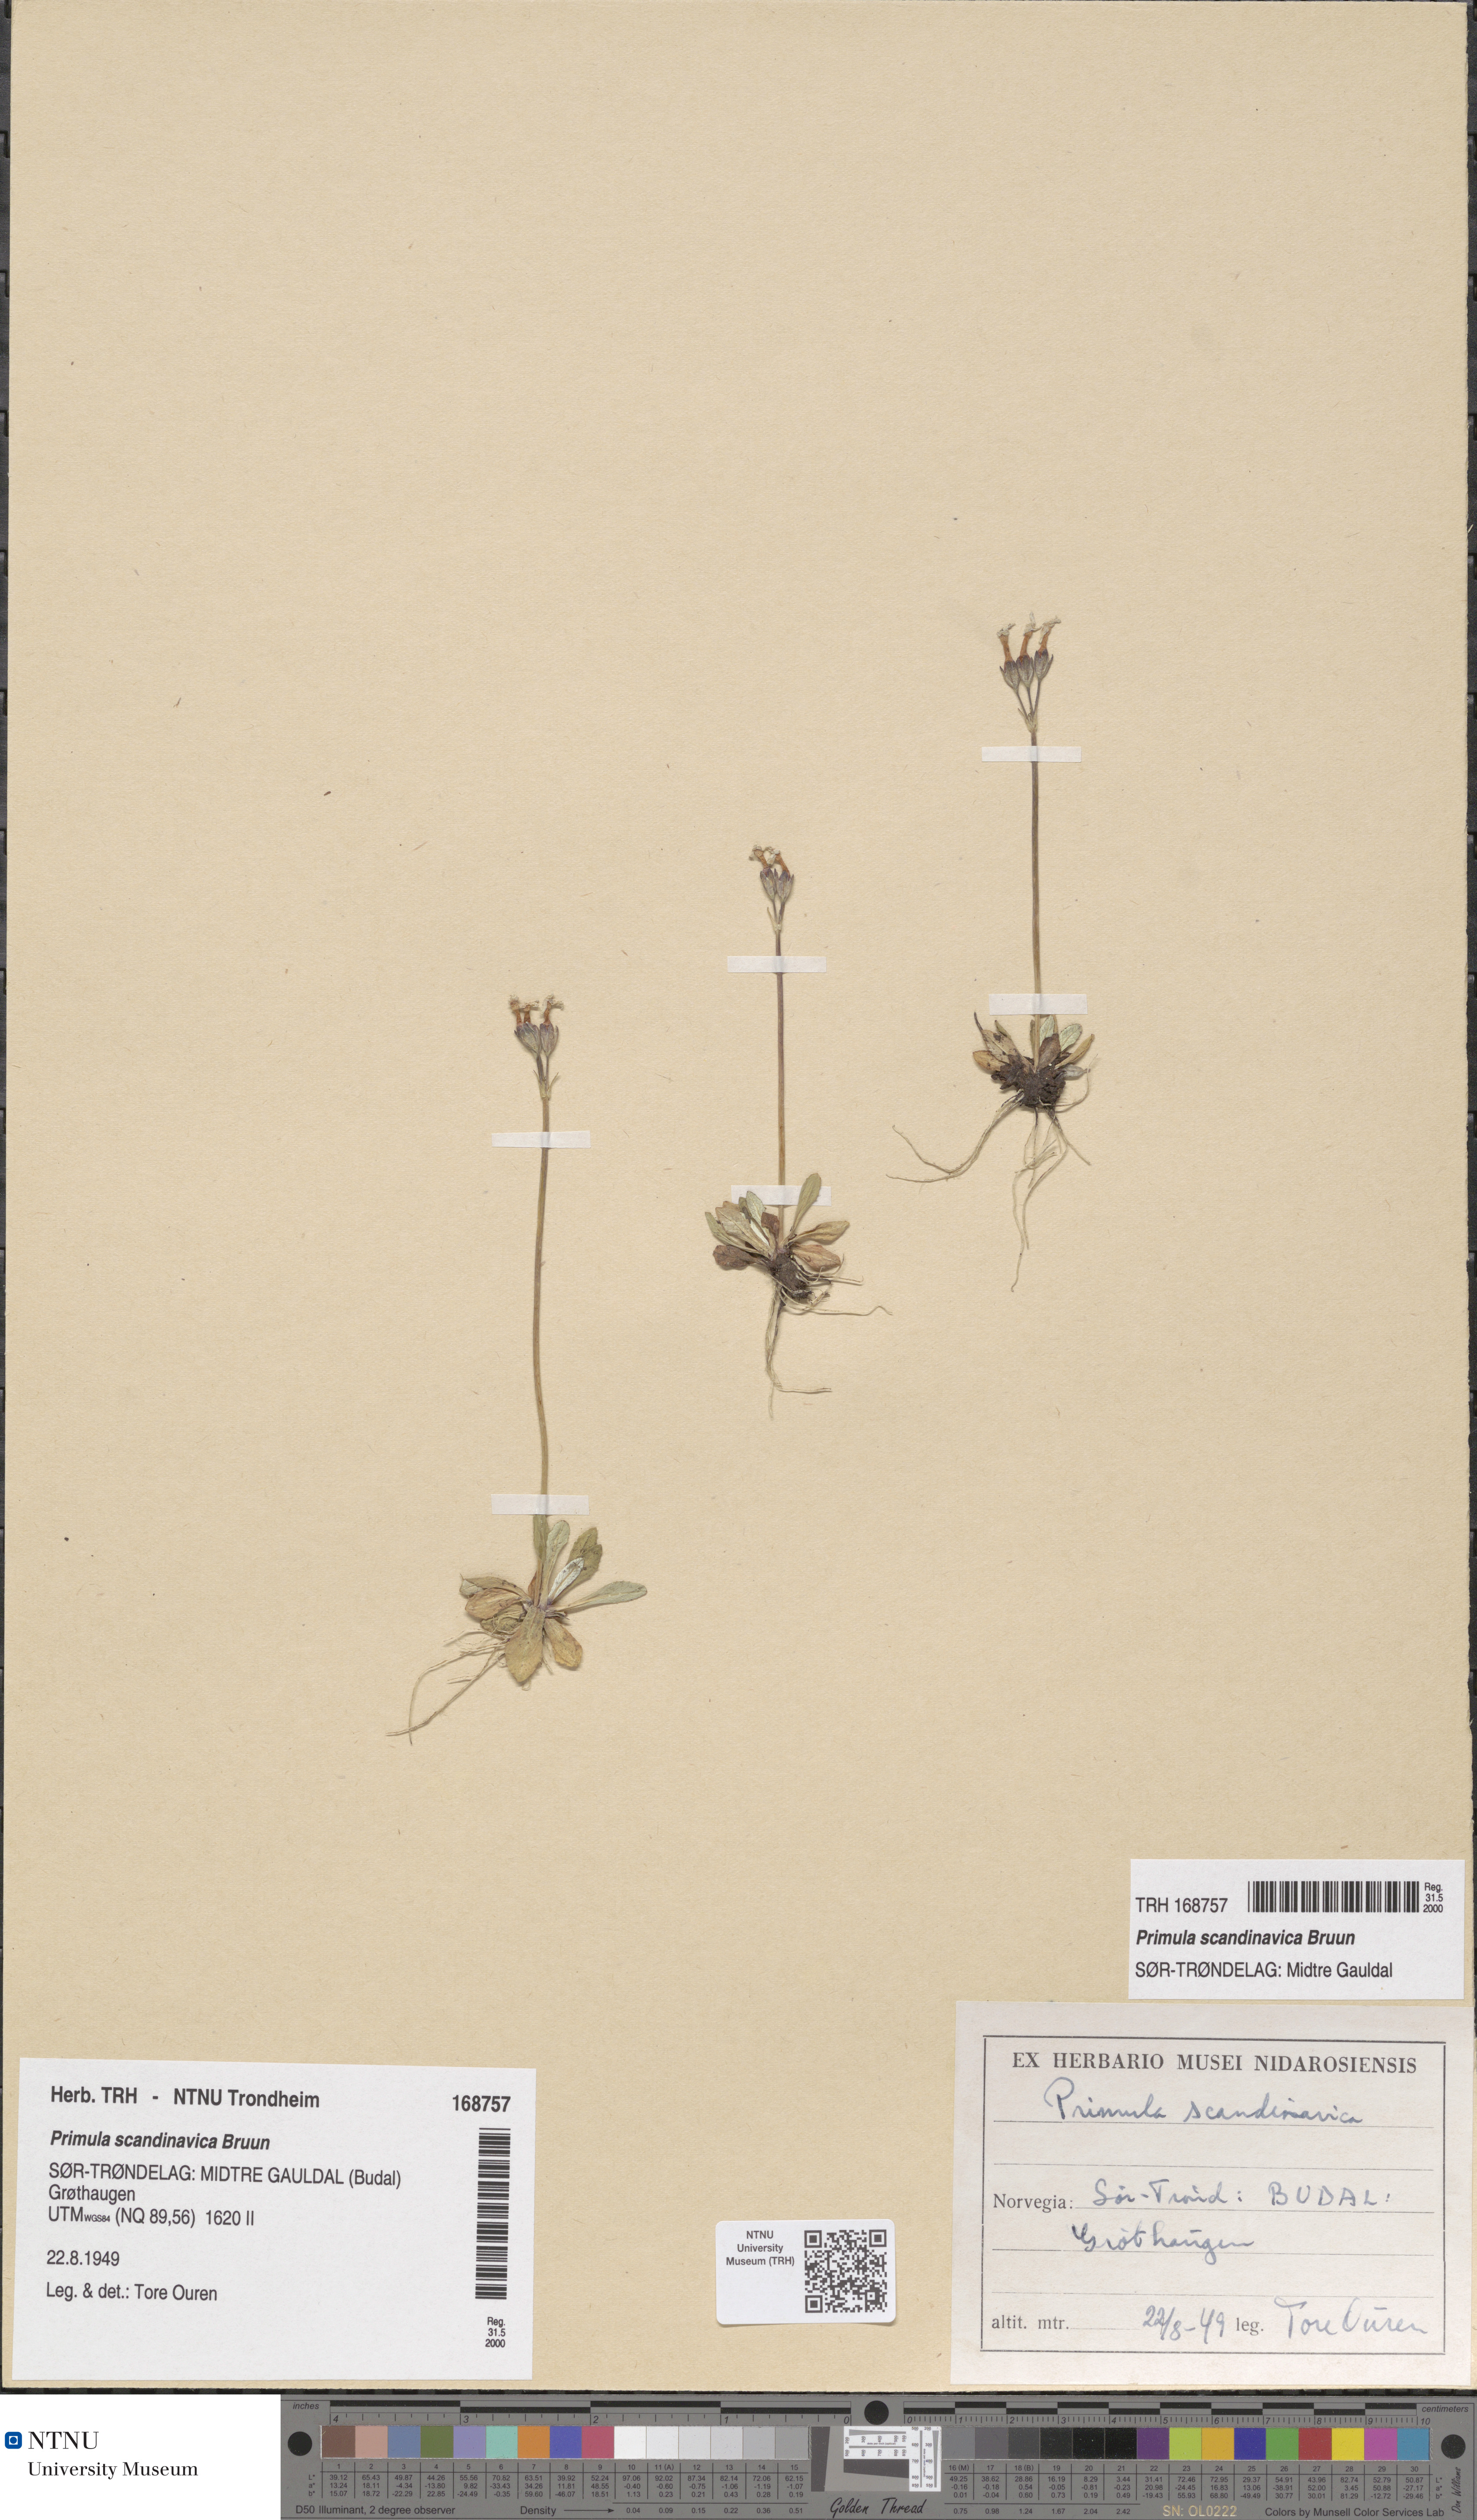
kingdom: Plantae
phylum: Tracheophyta
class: Magnoliopsida
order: Ericales
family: Primulaceae
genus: Primula
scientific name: Primula scandinavica
